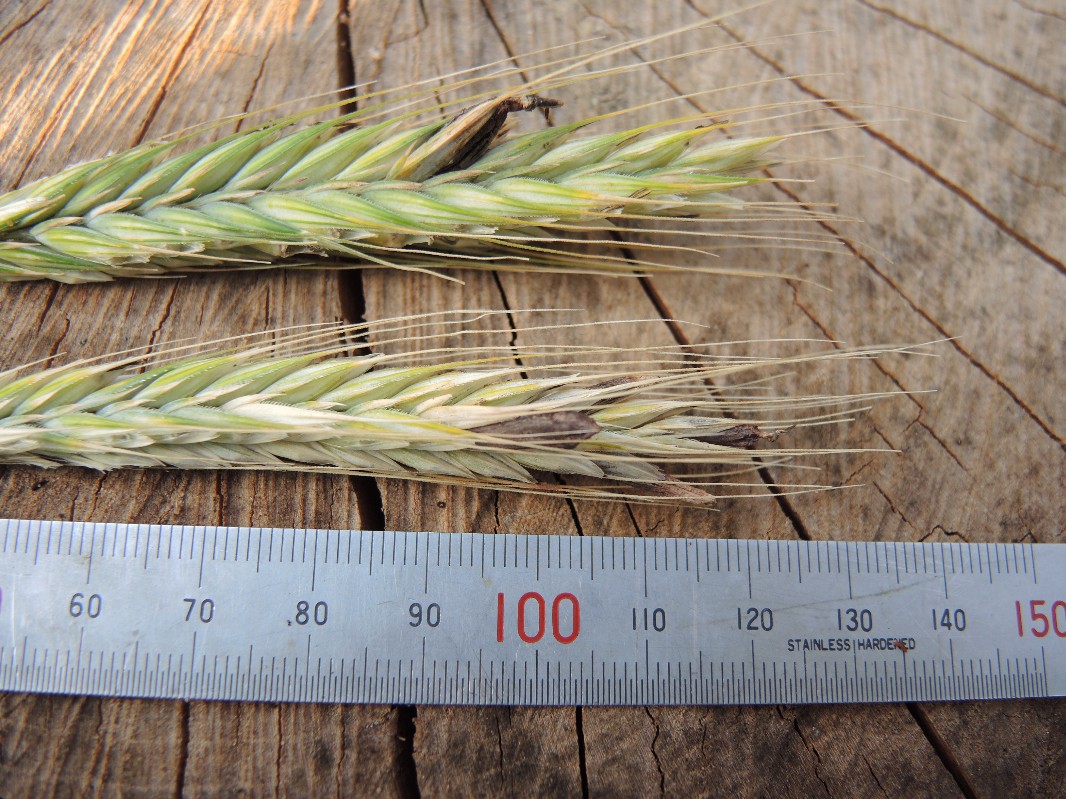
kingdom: Fungi
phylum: Ascomycota
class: Sordariomycetes
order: Hypocreales
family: Clavicipitaceae
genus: Claviceps
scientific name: Claviceps purpurea
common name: almindelig meldrøjer
